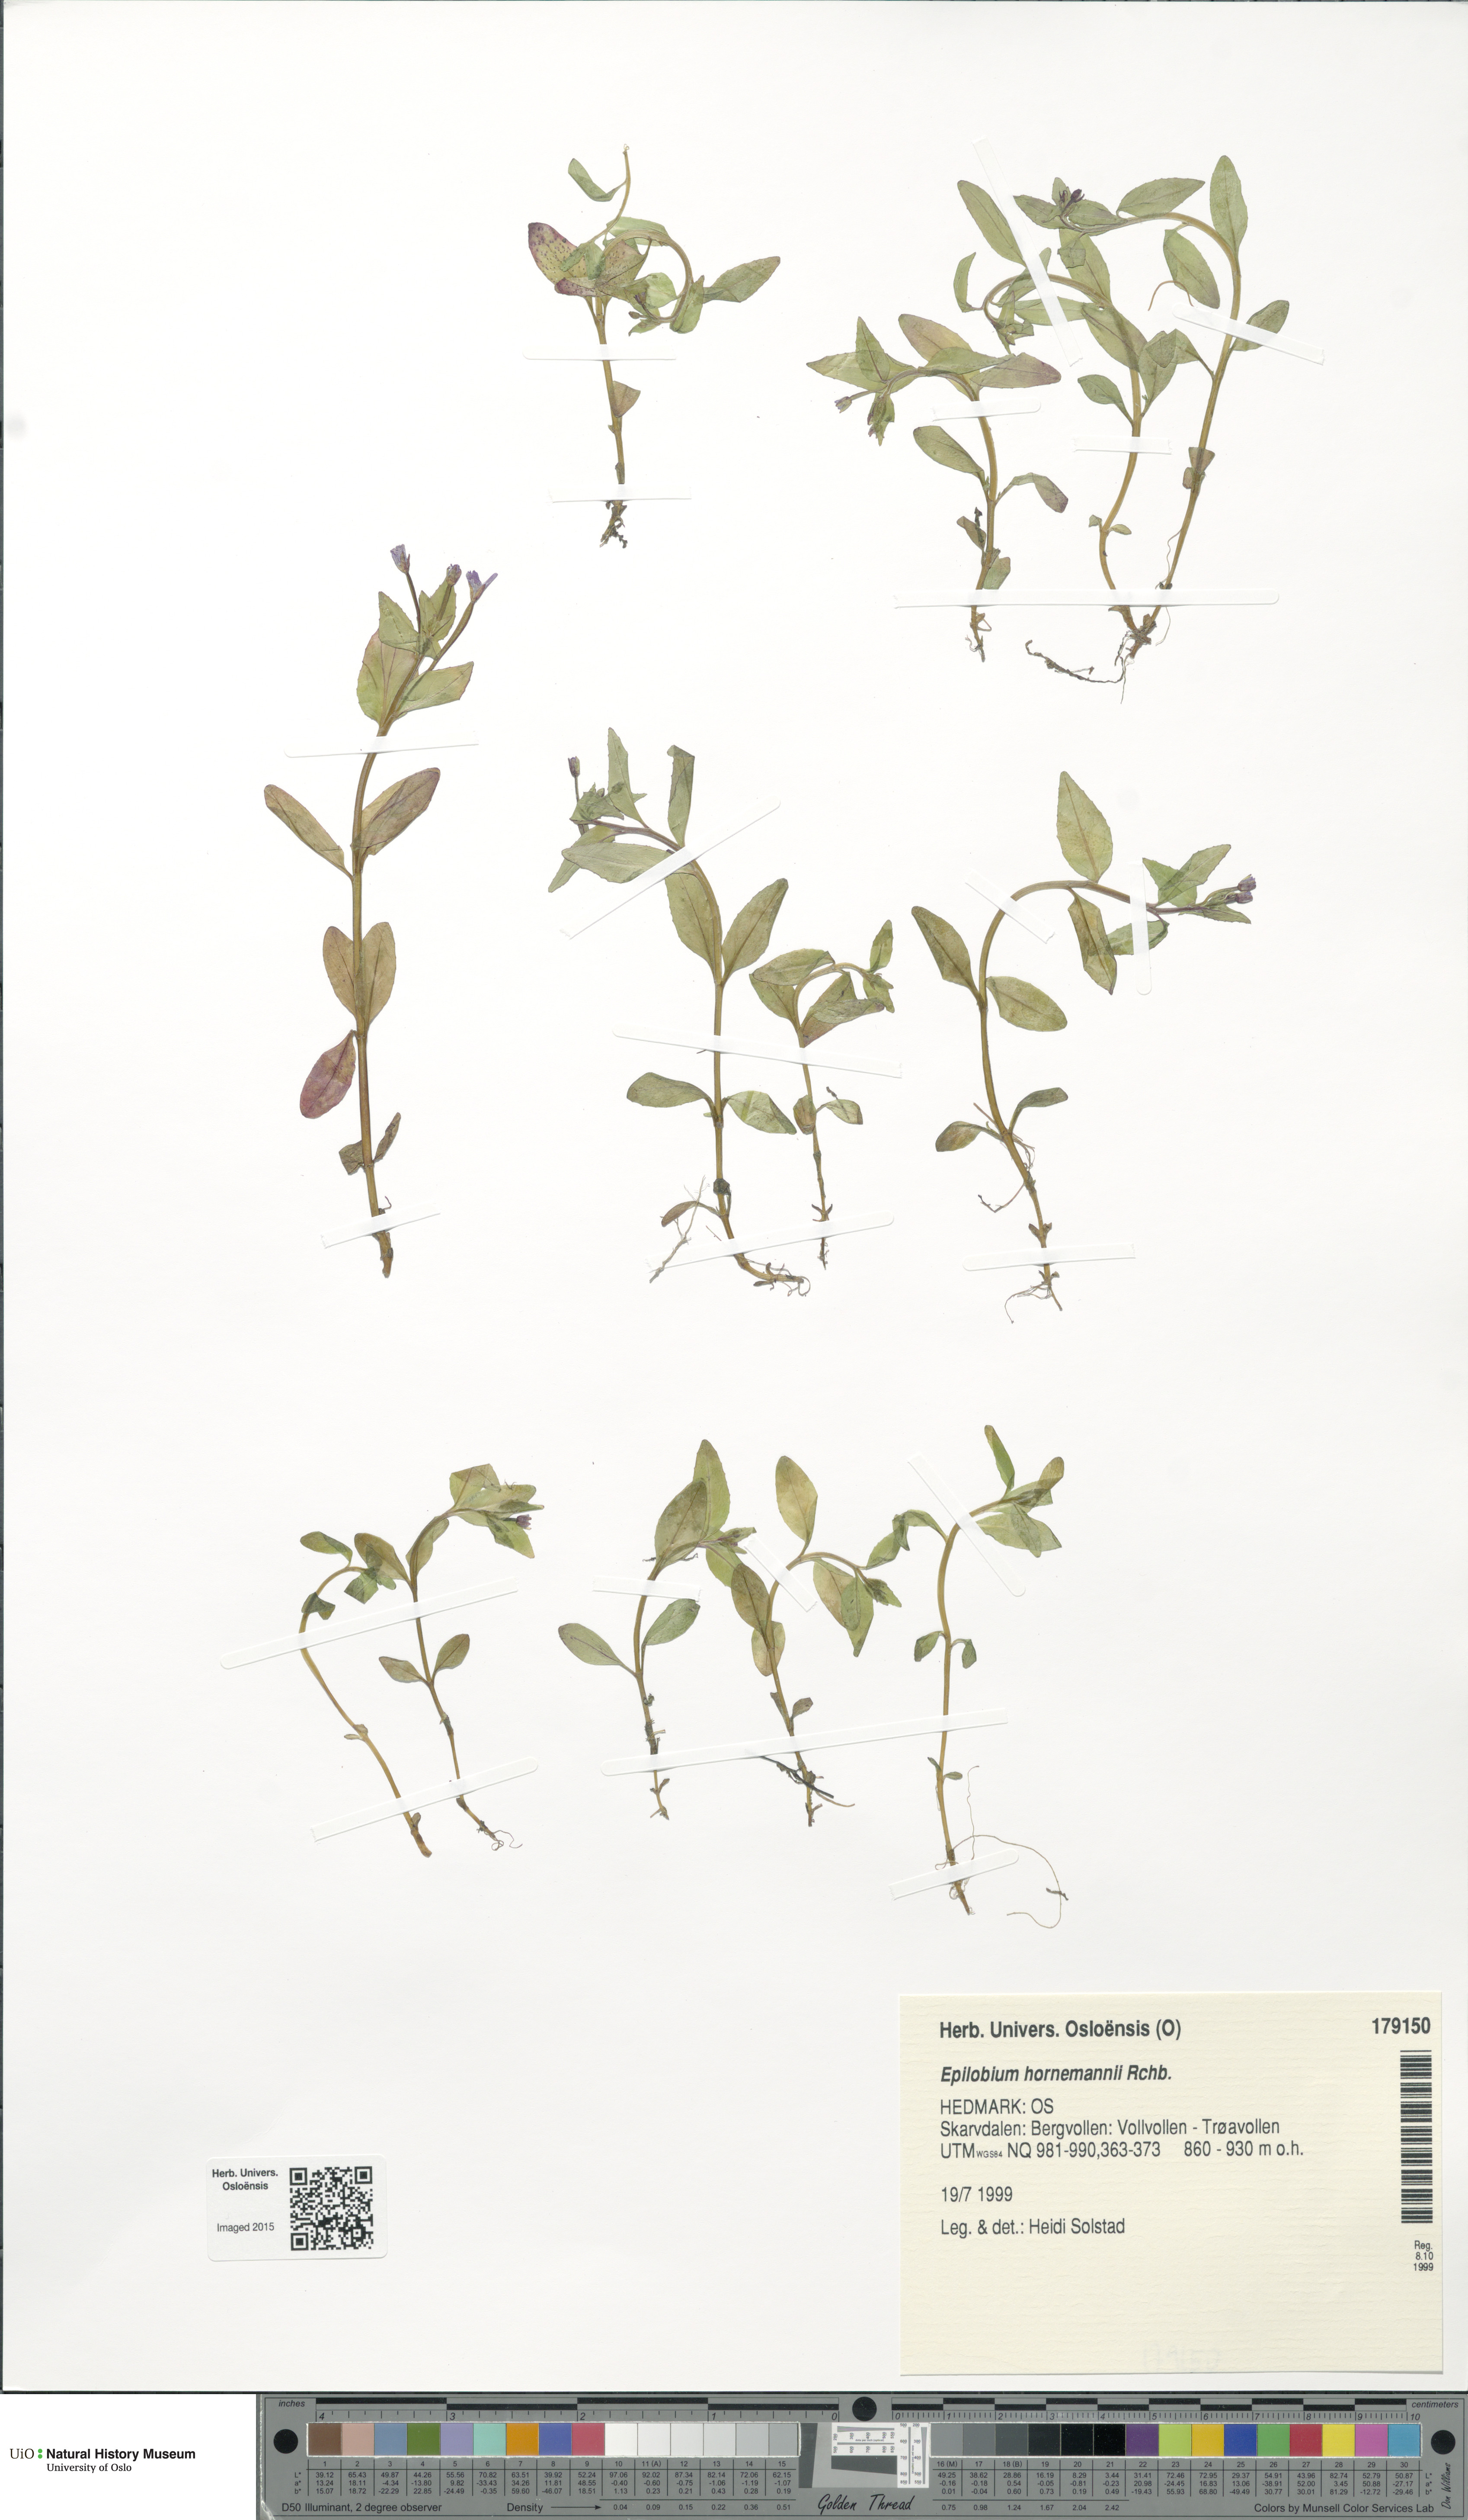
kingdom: Plantae
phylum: Tracheophyta
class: Magnoliopsida
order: Myrtales
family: Onagraceae
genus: Epilobium
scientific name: Epilobium hornemannii
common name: Hornemann's willowherb
